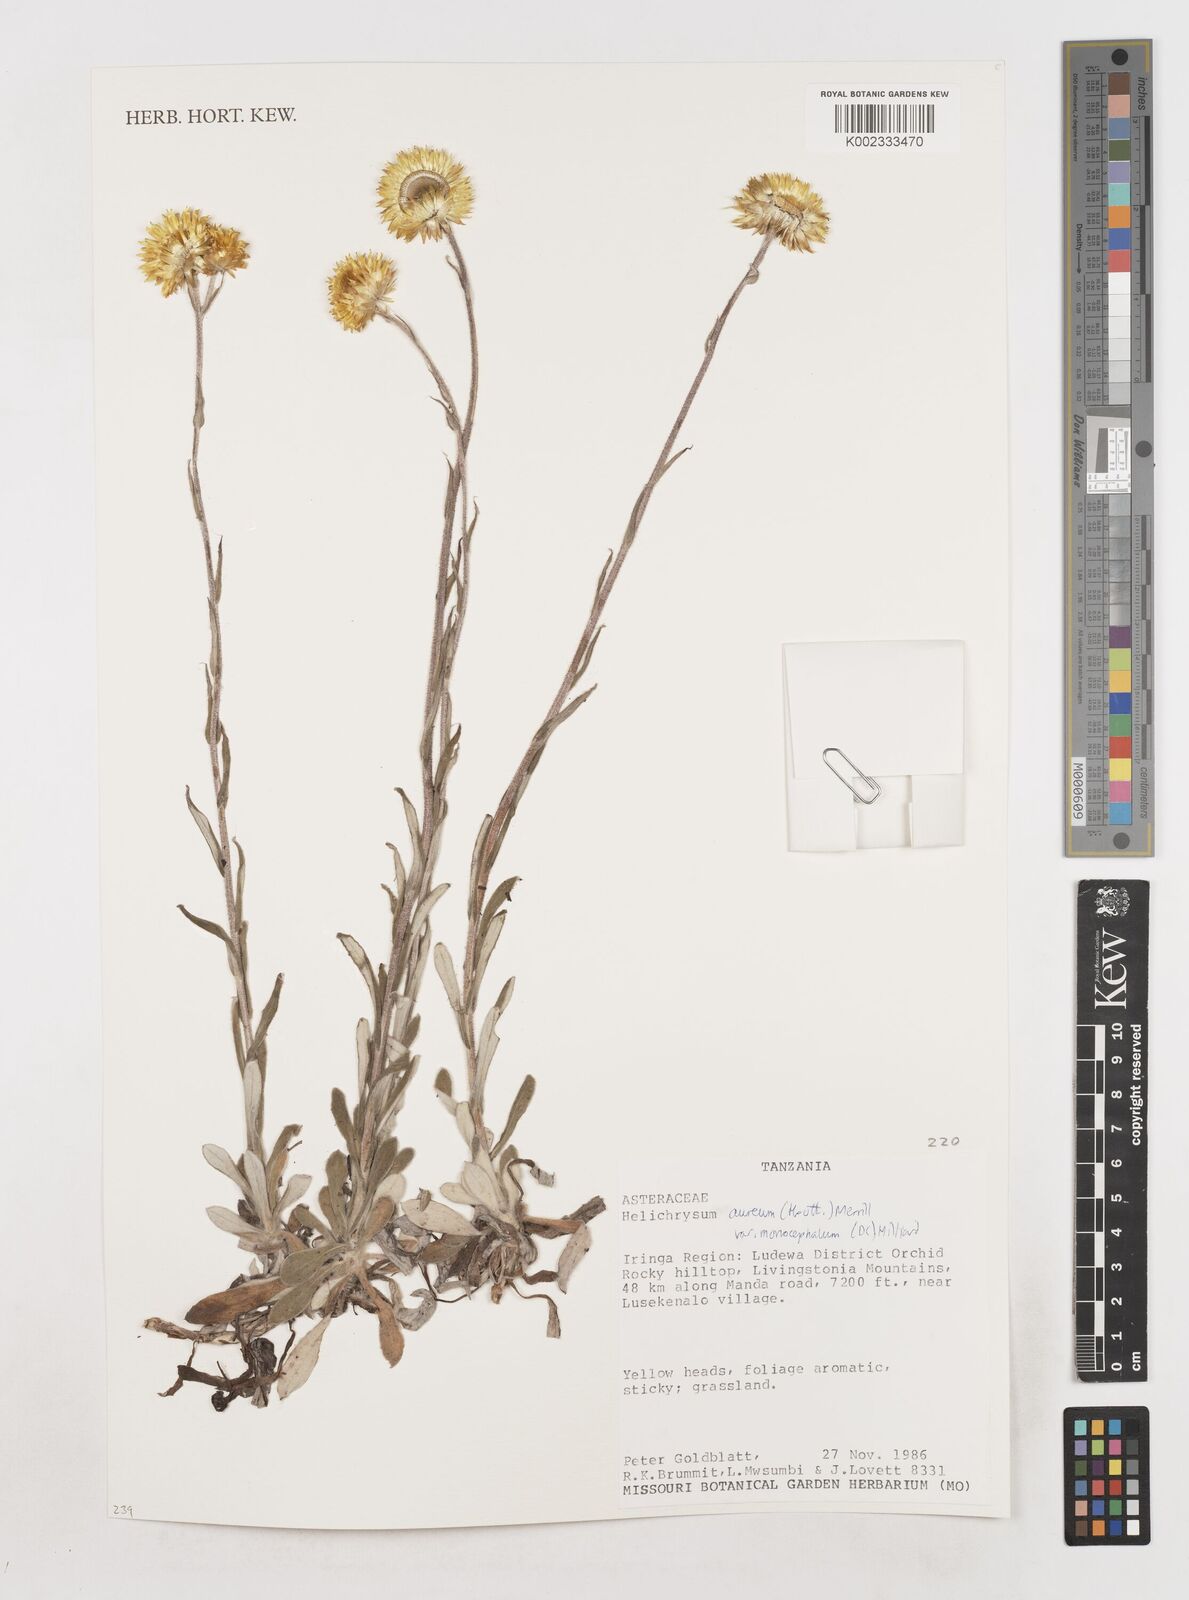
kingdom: Plantae
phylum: Tracheophyta
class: Magnoliopsida
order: Asterales
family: Asteraceae
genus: Helichrysum
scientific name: Helichrysum aureum
